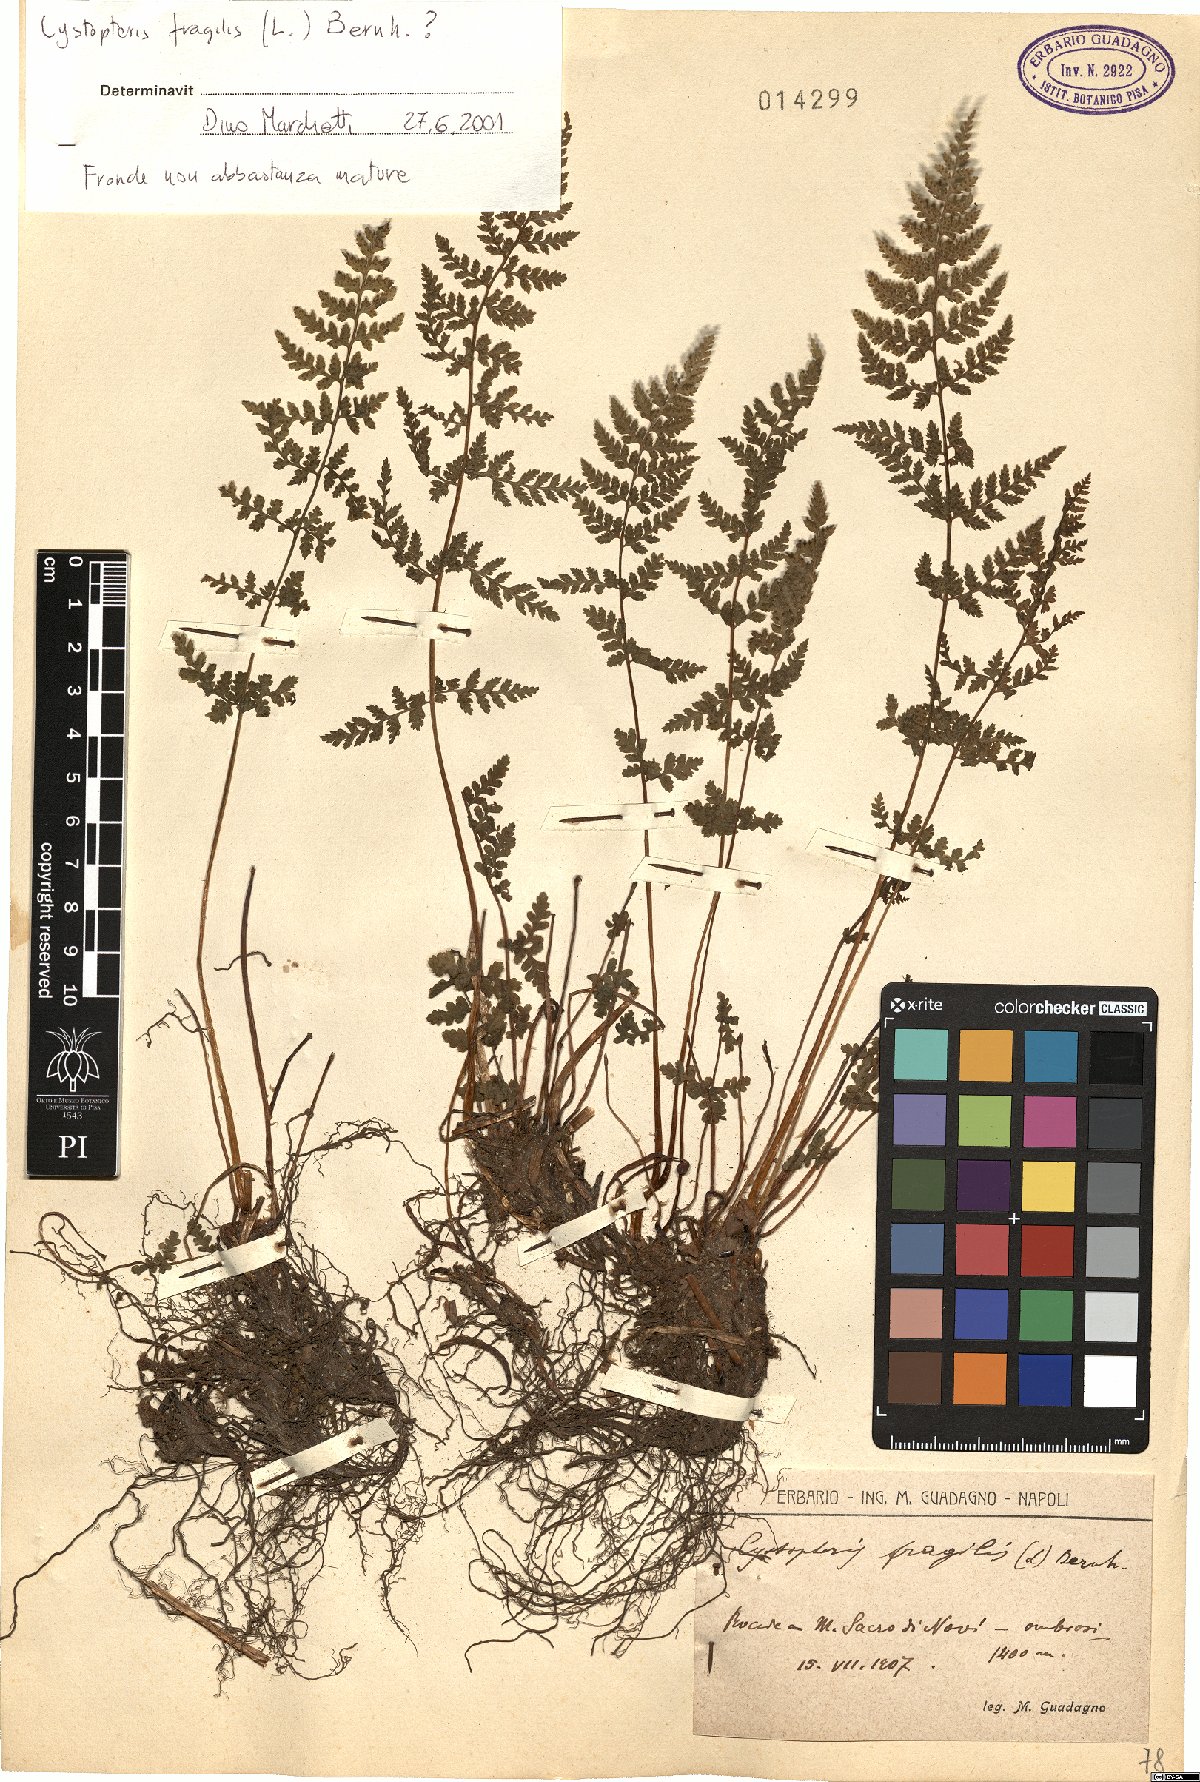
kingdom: Plantae
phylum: Tracheophyta
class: Polypodiopsida
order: Polypodiales
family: Cystopteridaceae
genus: Cystopteris
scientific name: Cystopteris fragilis
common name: Brittle bladder fern
